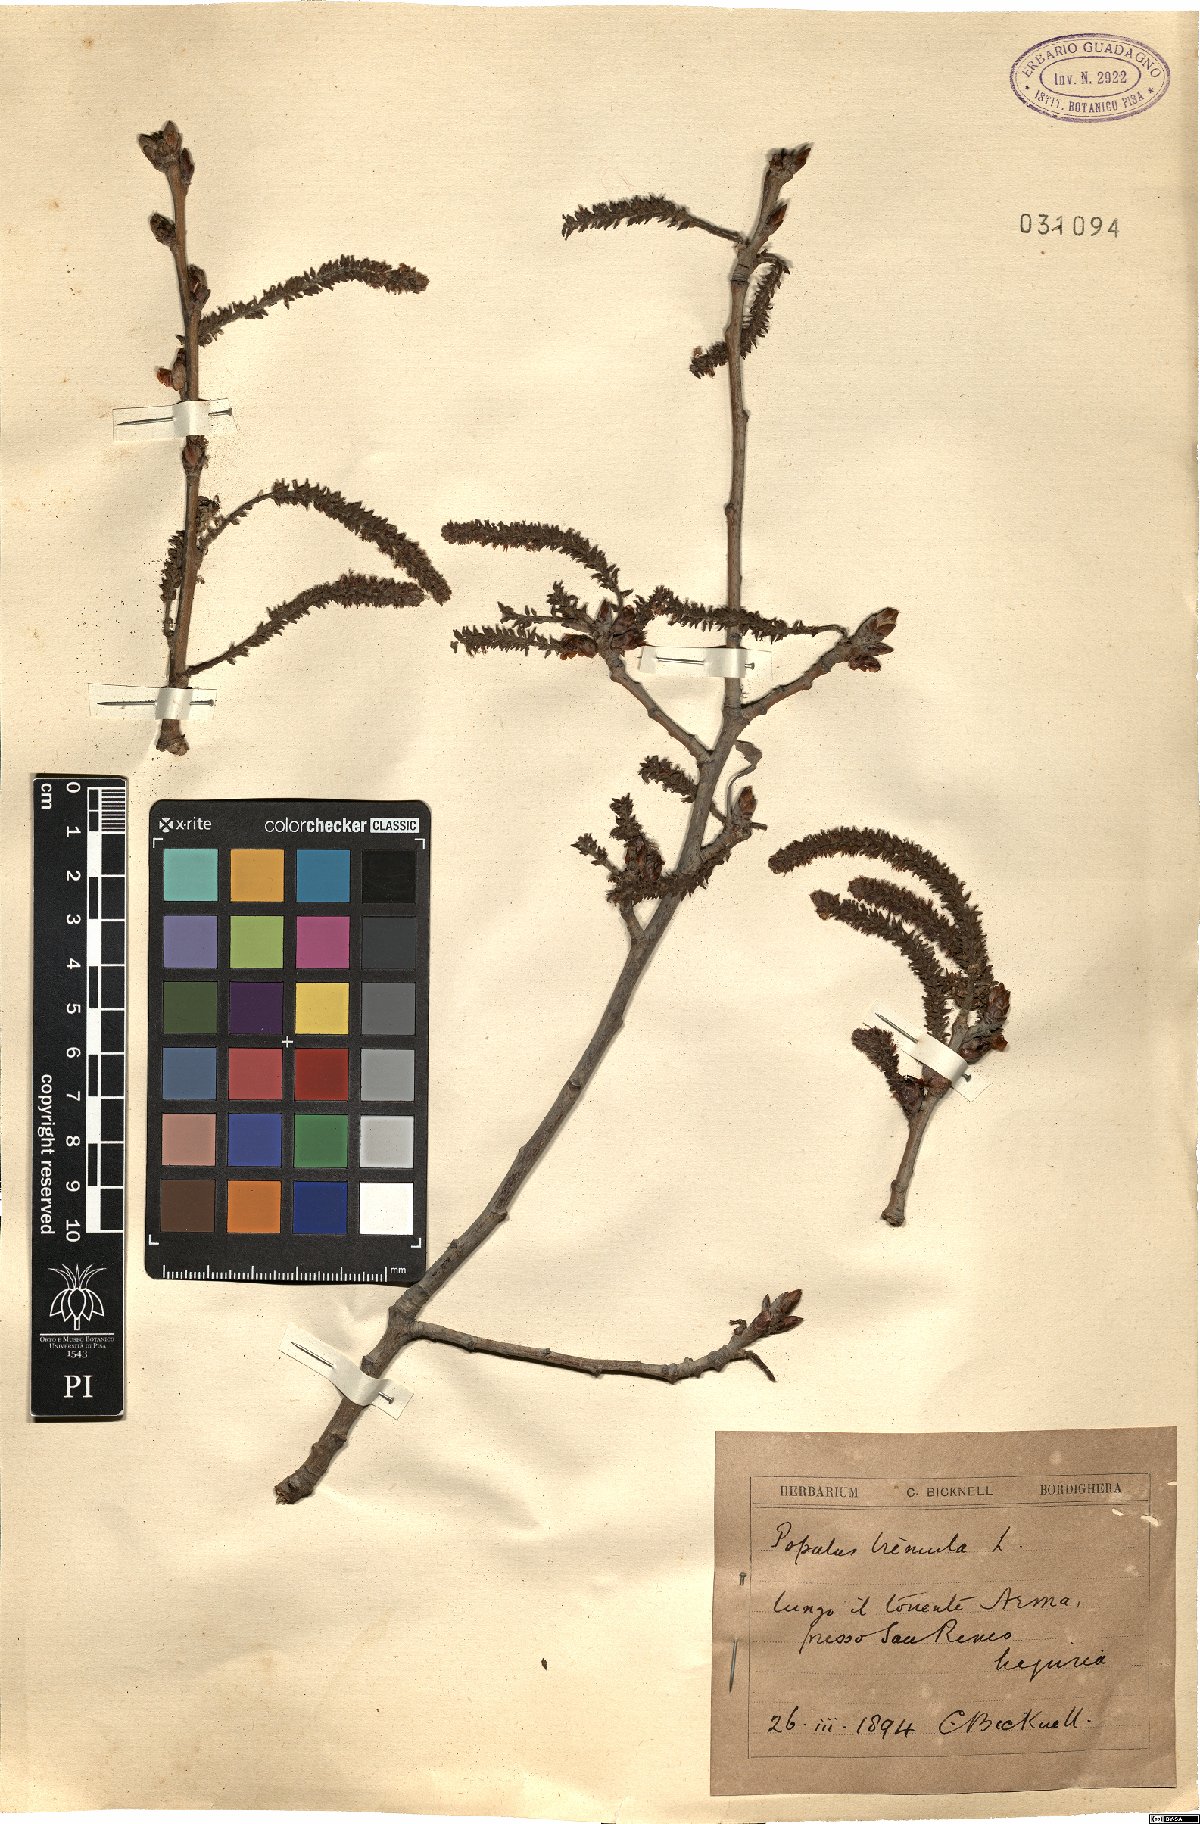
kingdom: Plantae
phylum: Tracheophyta
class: Magnoliopsida
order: Malpighiales
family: Salicaceae
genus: Populus
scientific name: Populus tremula
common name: European aspen
